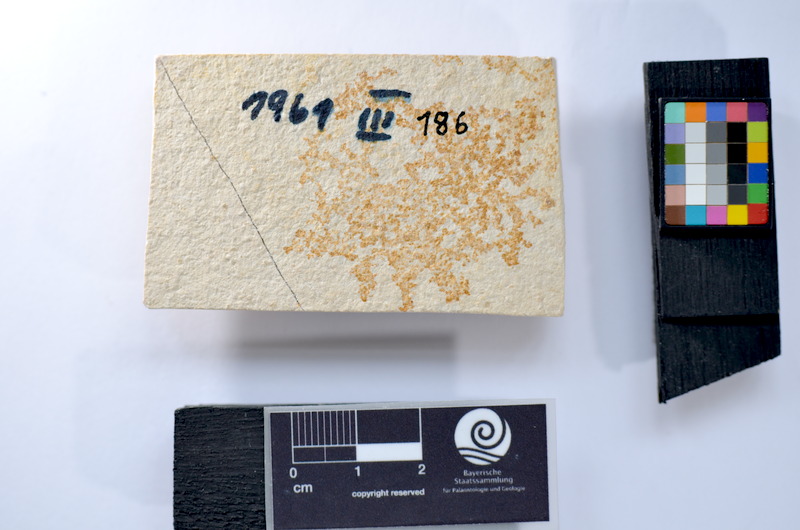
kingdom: Animalia
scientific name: Animalia
